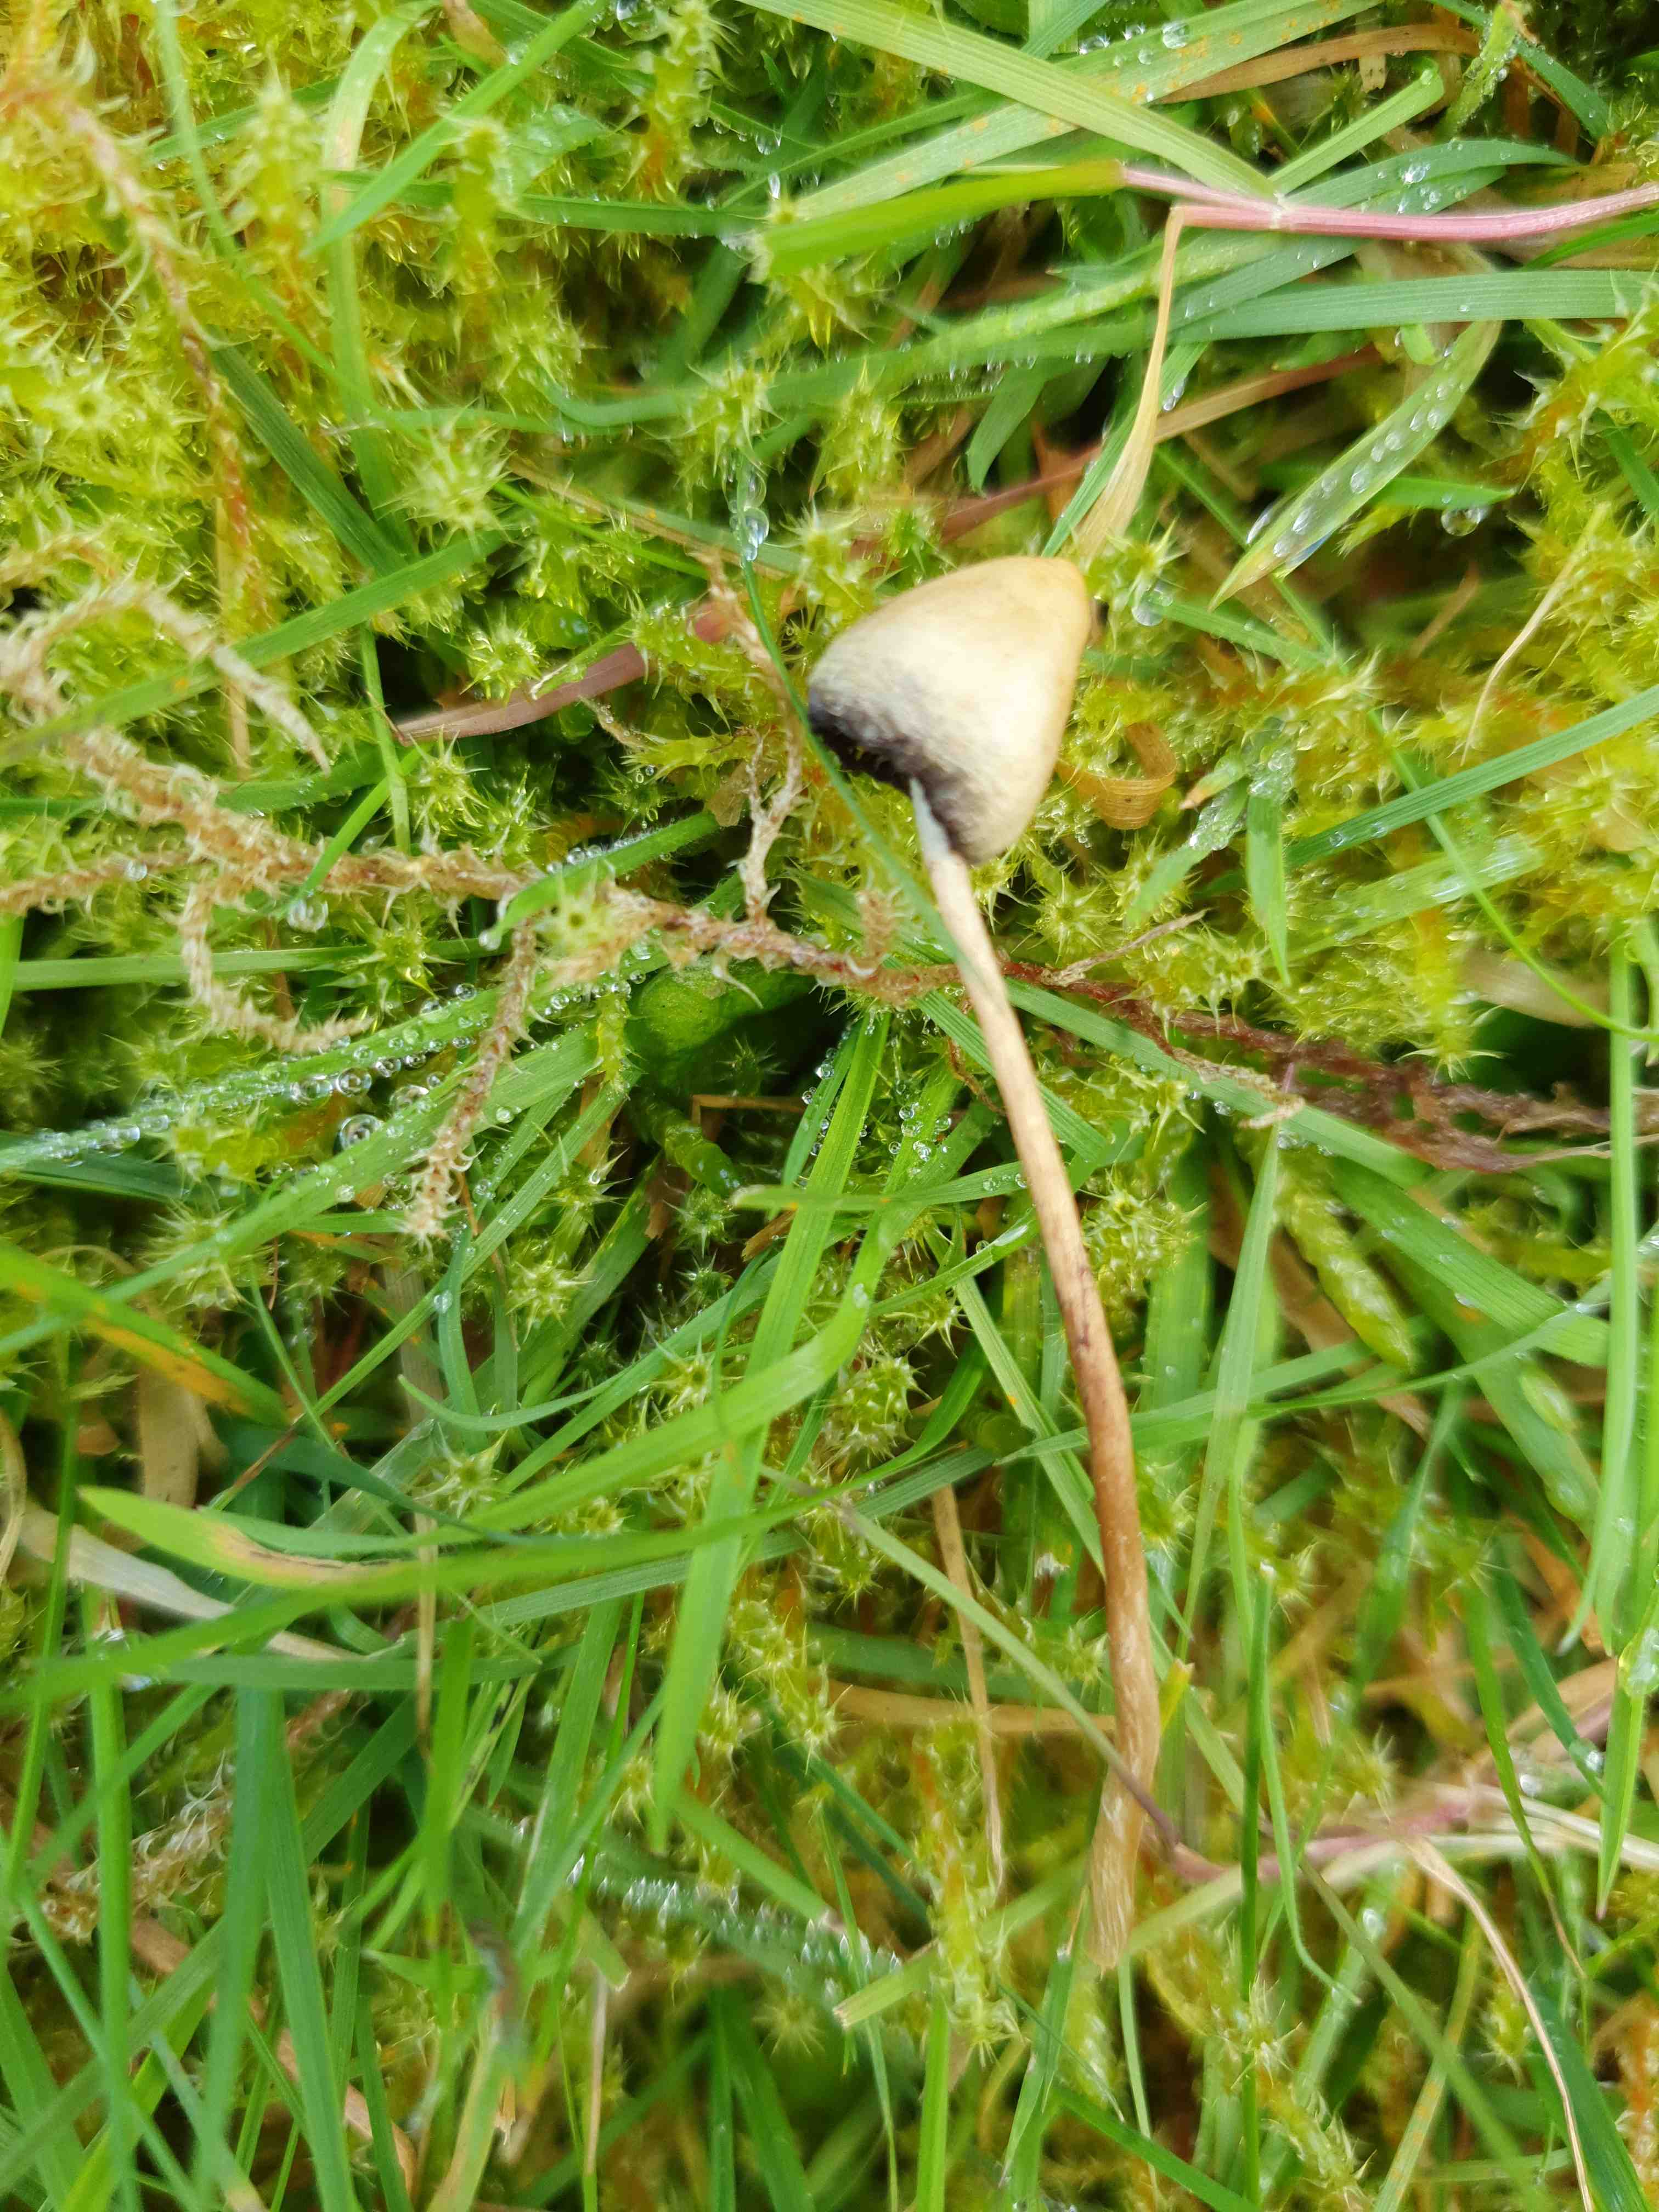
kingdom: Fungi
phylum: Basidiomycota
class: Agaricomycetes
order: Agaricales
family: Hymenogastraceae
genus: Psilocybe
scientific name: Psilocybe semilanceata
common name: spids nøgenhat
